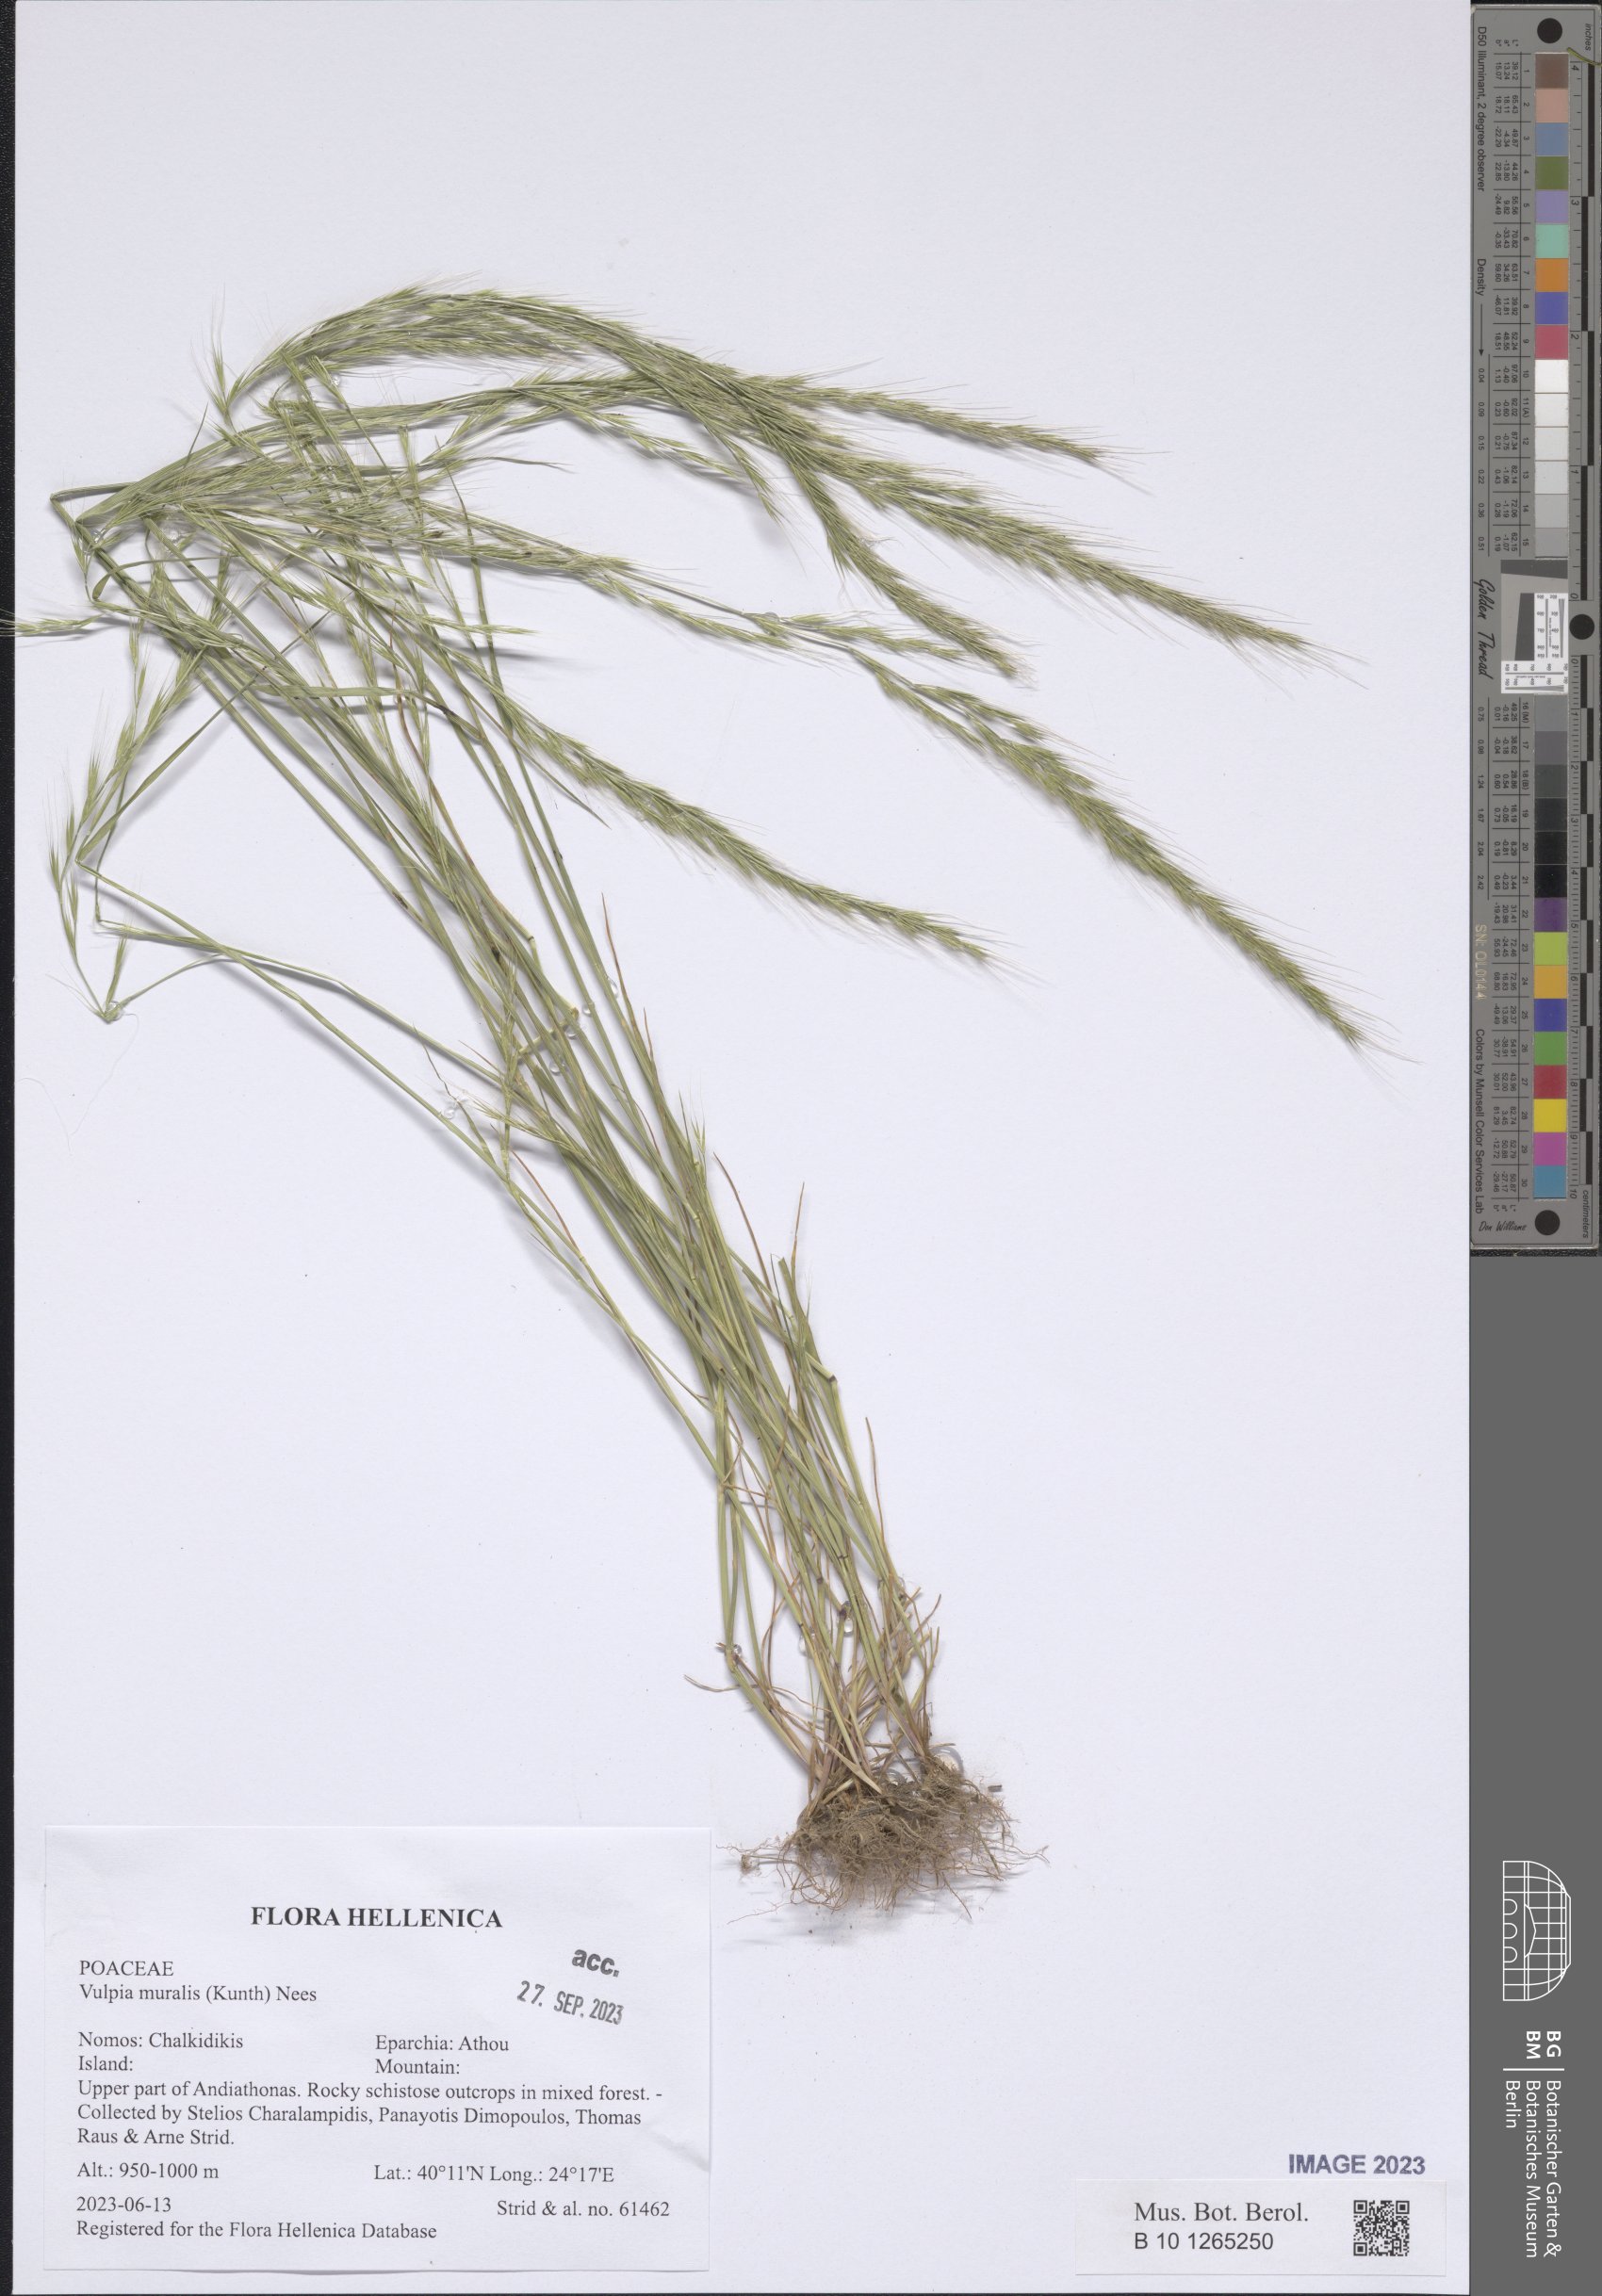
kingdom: Plantae
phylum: Tracheophyta
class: Liliopsida
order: Poales
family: Poaceae
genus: Festuca
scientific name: Festuca muralis
